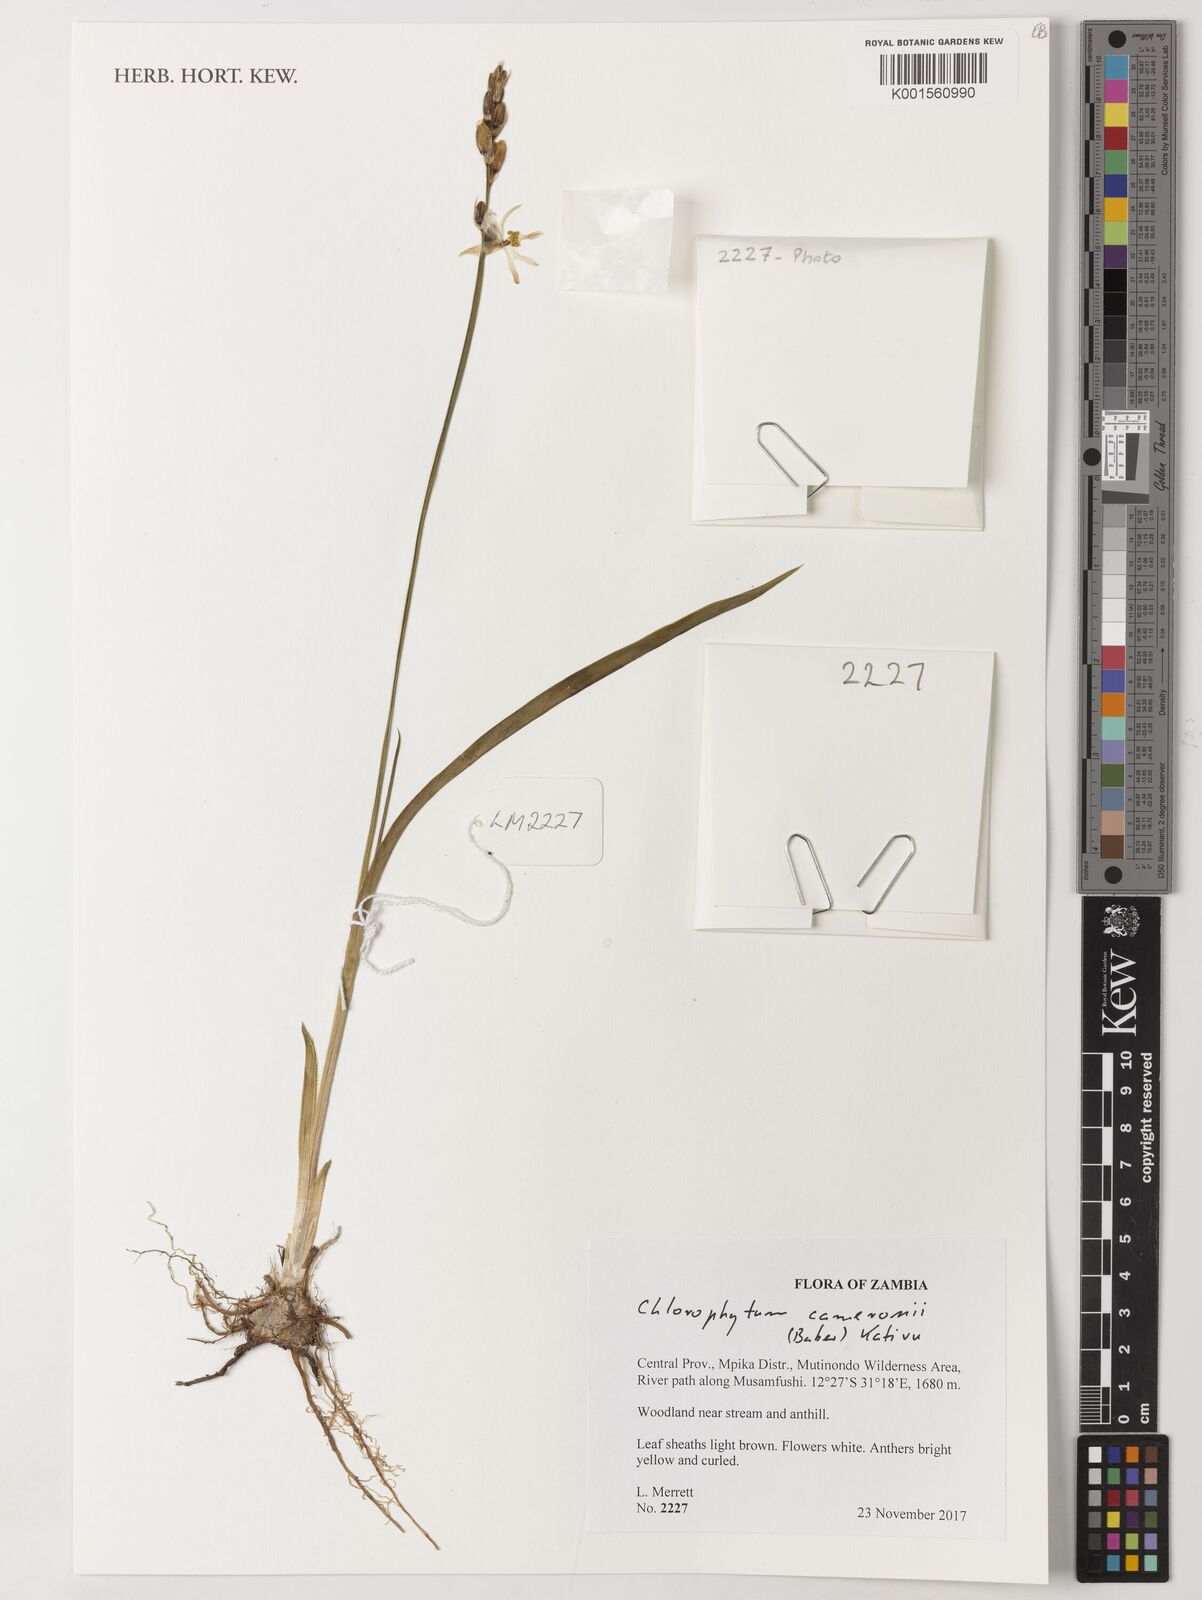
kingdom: Plantae
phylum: Tracheophyta
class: Liliopsida
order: Asparagales
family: Asparagaceae
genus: Chlorophytum
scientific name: Chlorophytum cameronii
